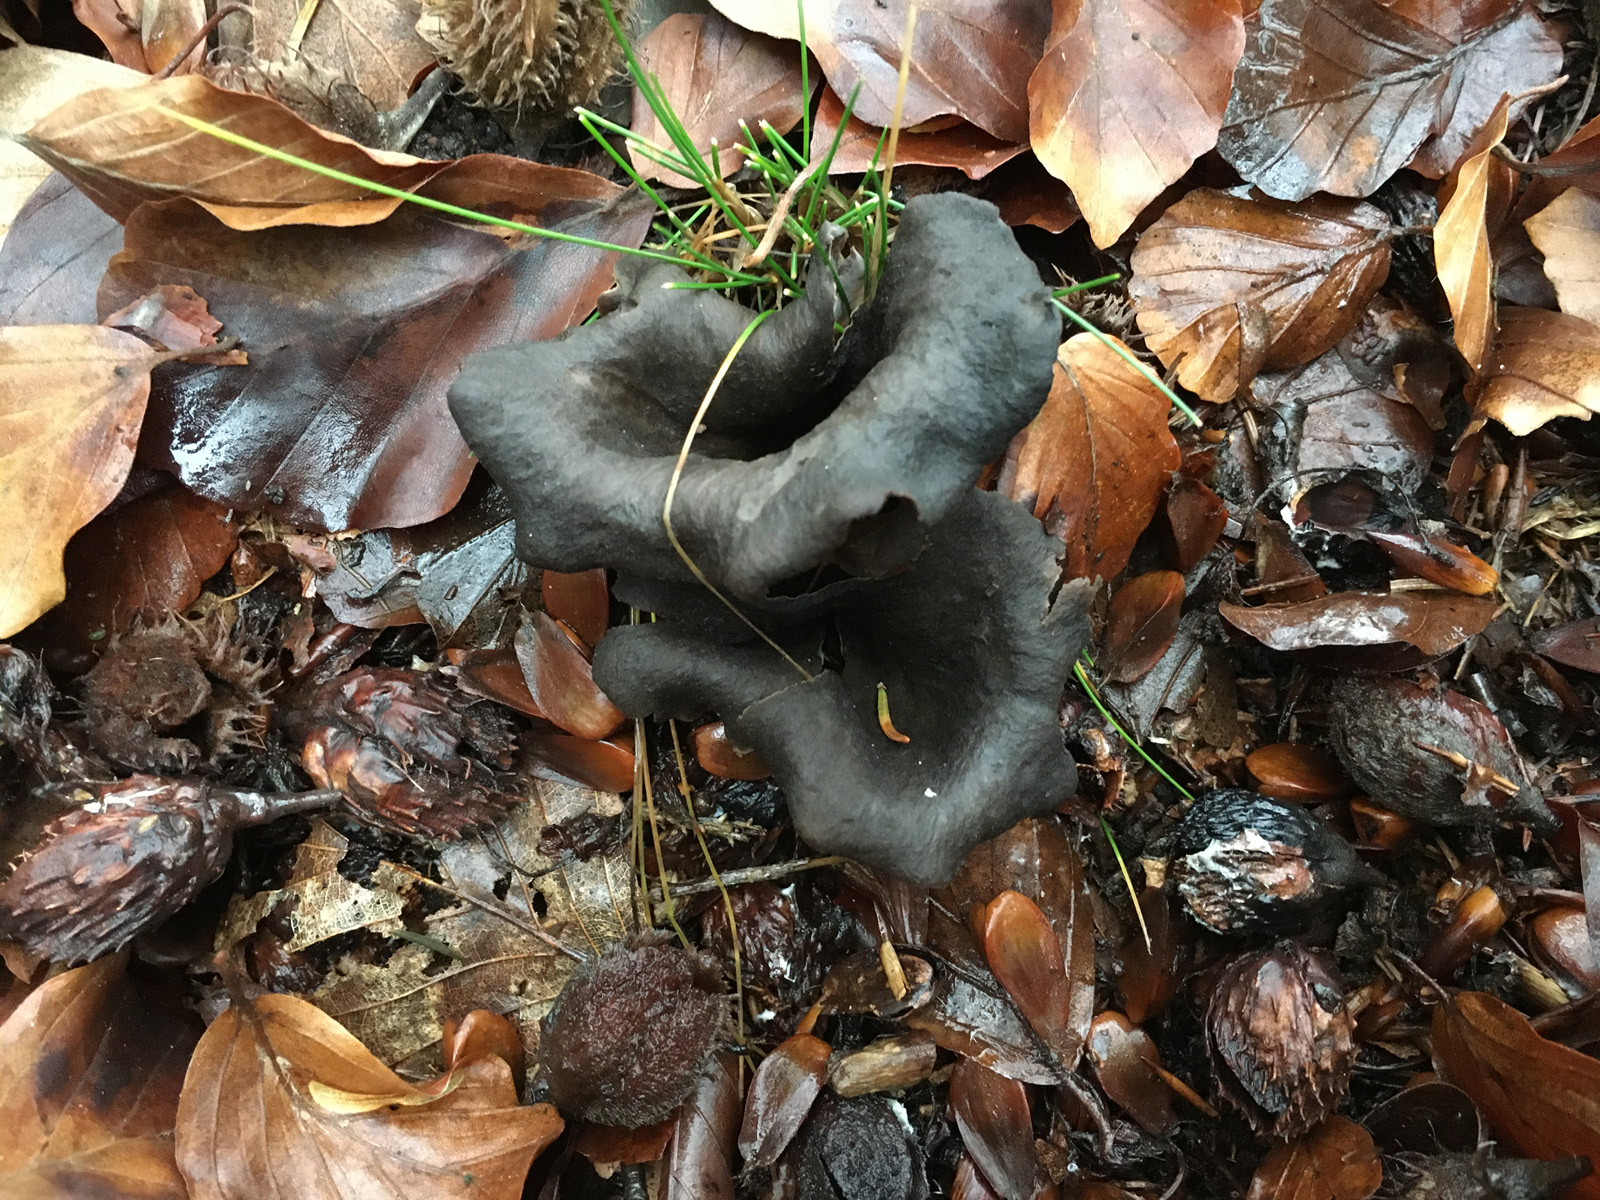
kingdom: Fungi
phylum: Basidiomycota
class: Agaricomycetes
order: Cantharellales
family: Hydnaceae
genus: Craterellus
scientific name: Craterellus cornucopioides
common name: trompetsvamp
